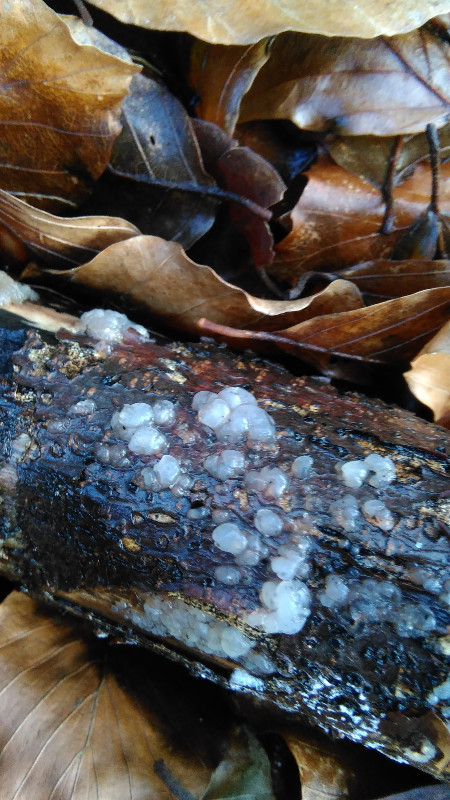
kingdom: Fungi
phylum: Basidiomycota
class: Agaricomycetes
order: Auriculariales
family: Hyaloriaceae
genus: Myxarium
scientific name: Myxarium nucleatum
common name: klar bævretop
